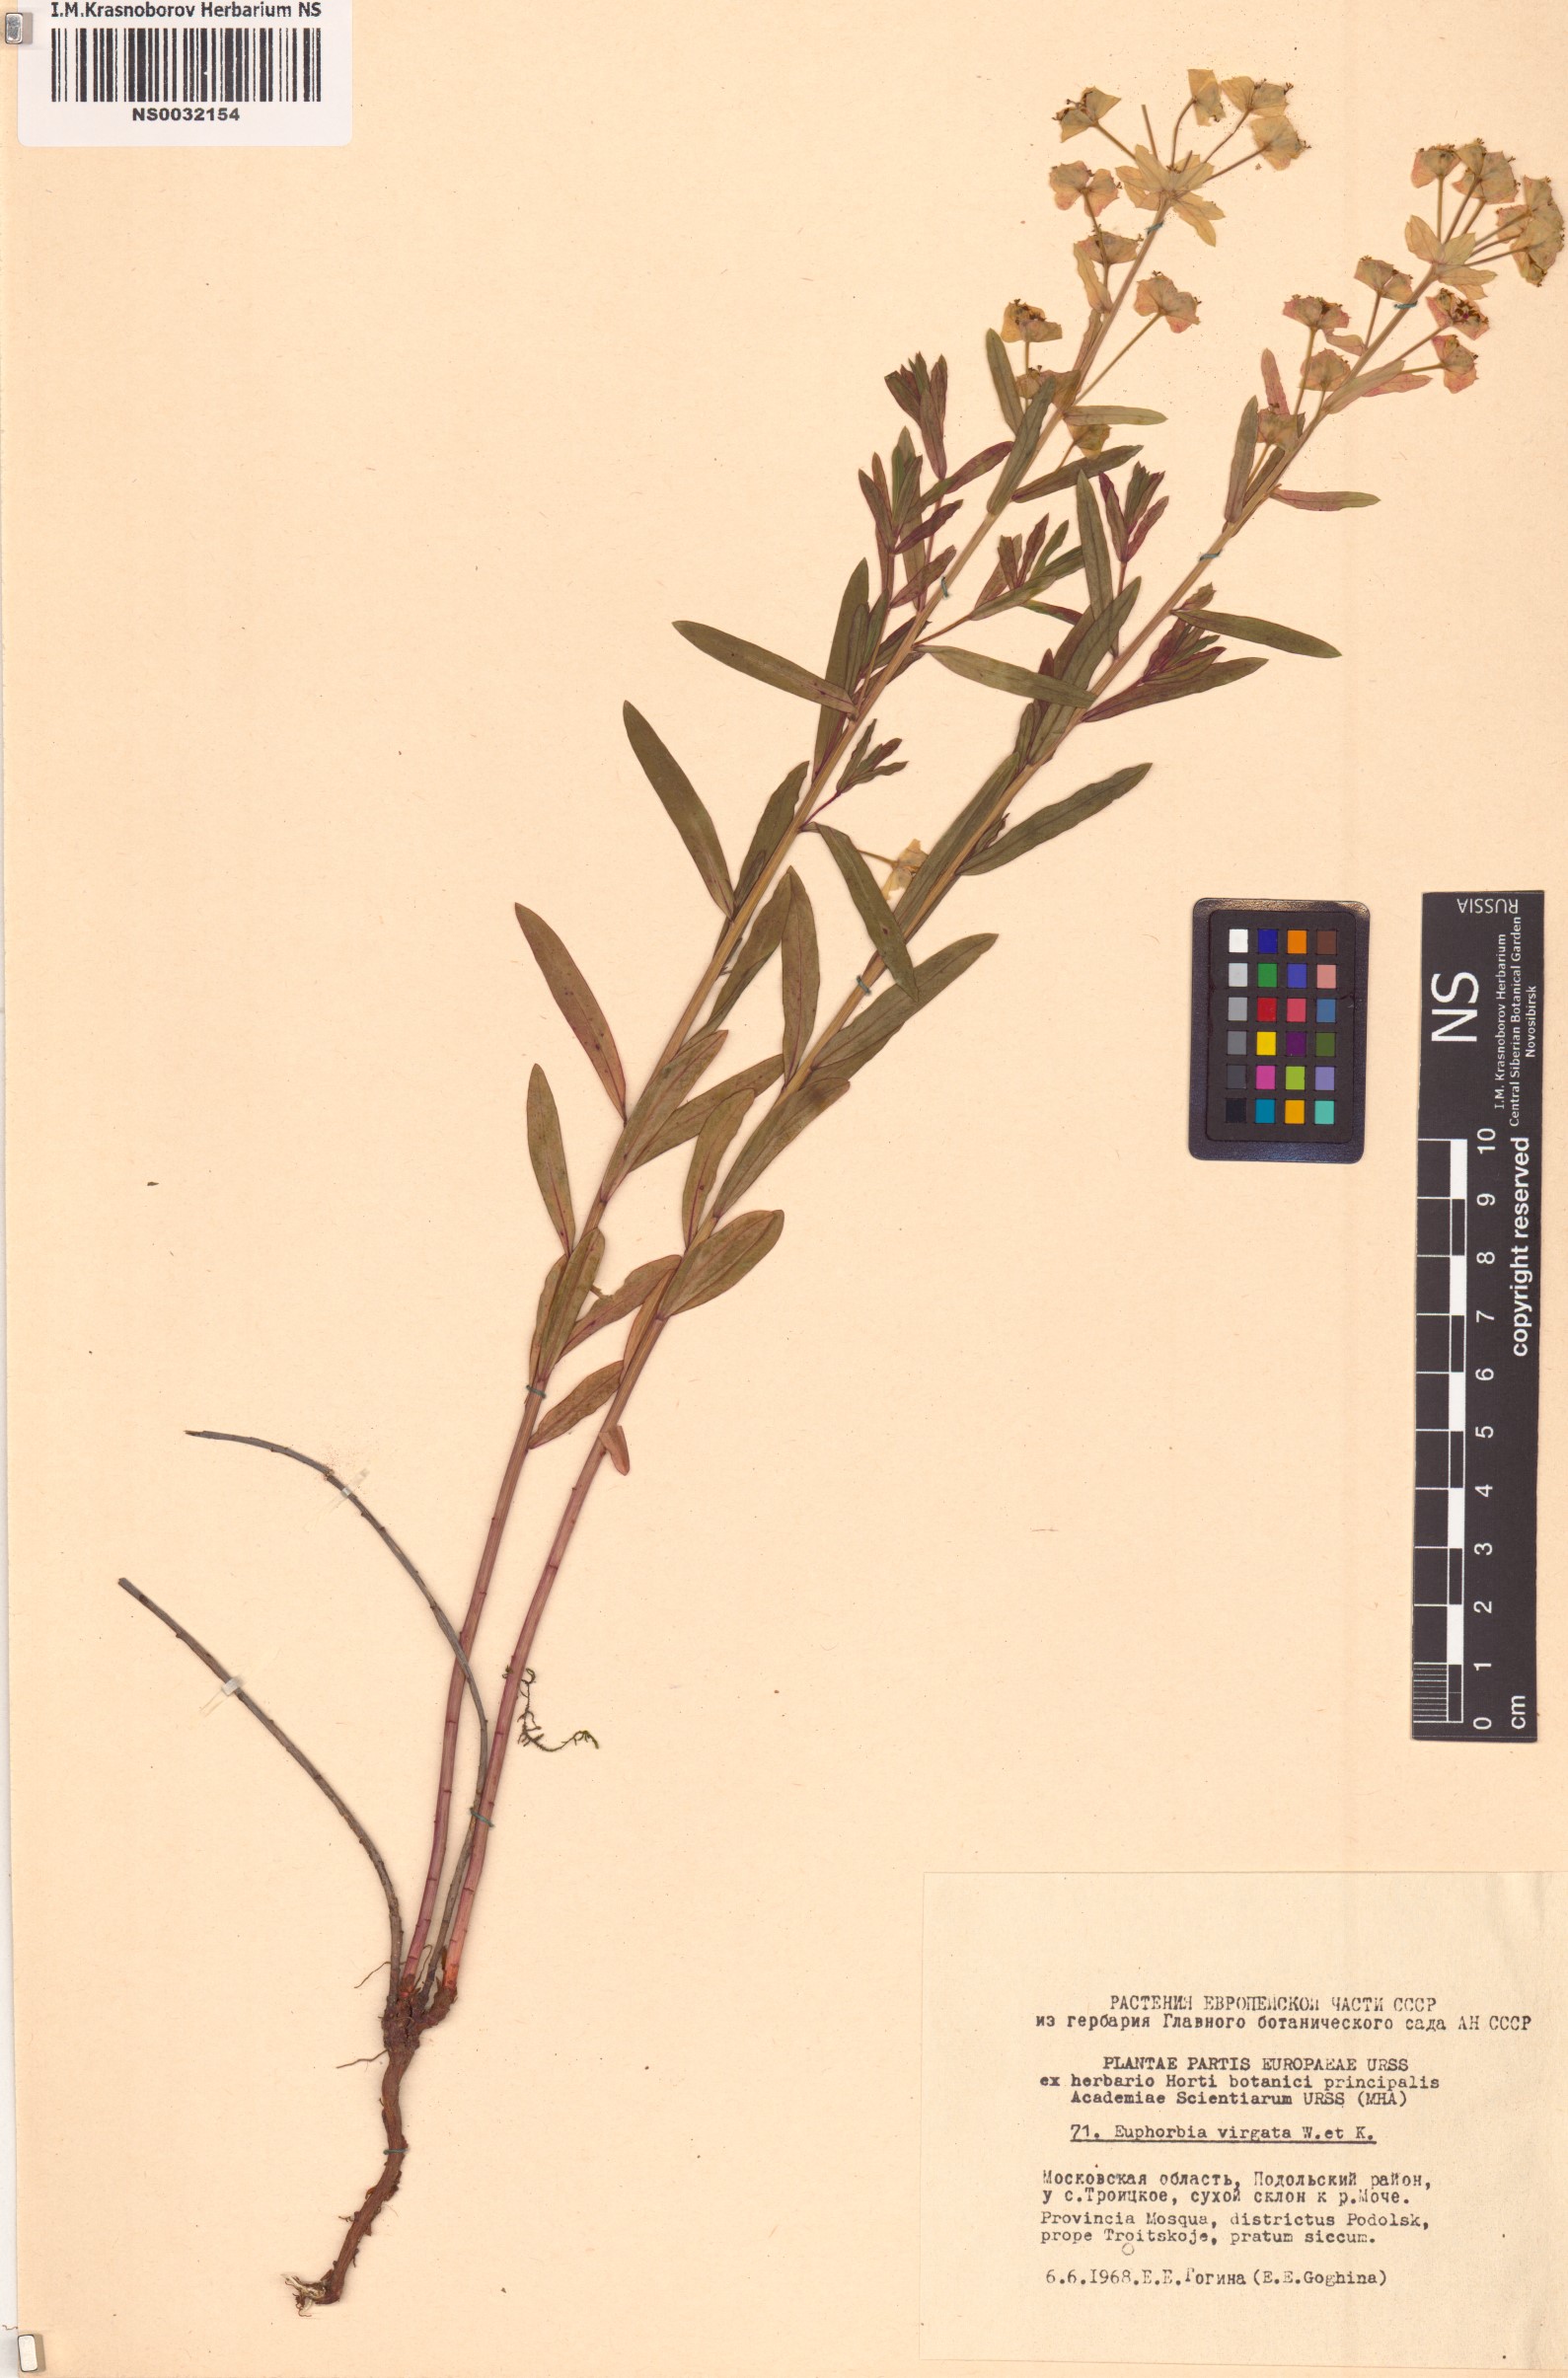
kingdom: Plantae
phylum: Tracheophyta
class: Magnoliopsida
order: Malpighiales
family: Euphorbiaceae
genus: Euphorbia
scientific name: Euphorbia virgata
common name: Leafy spurge
